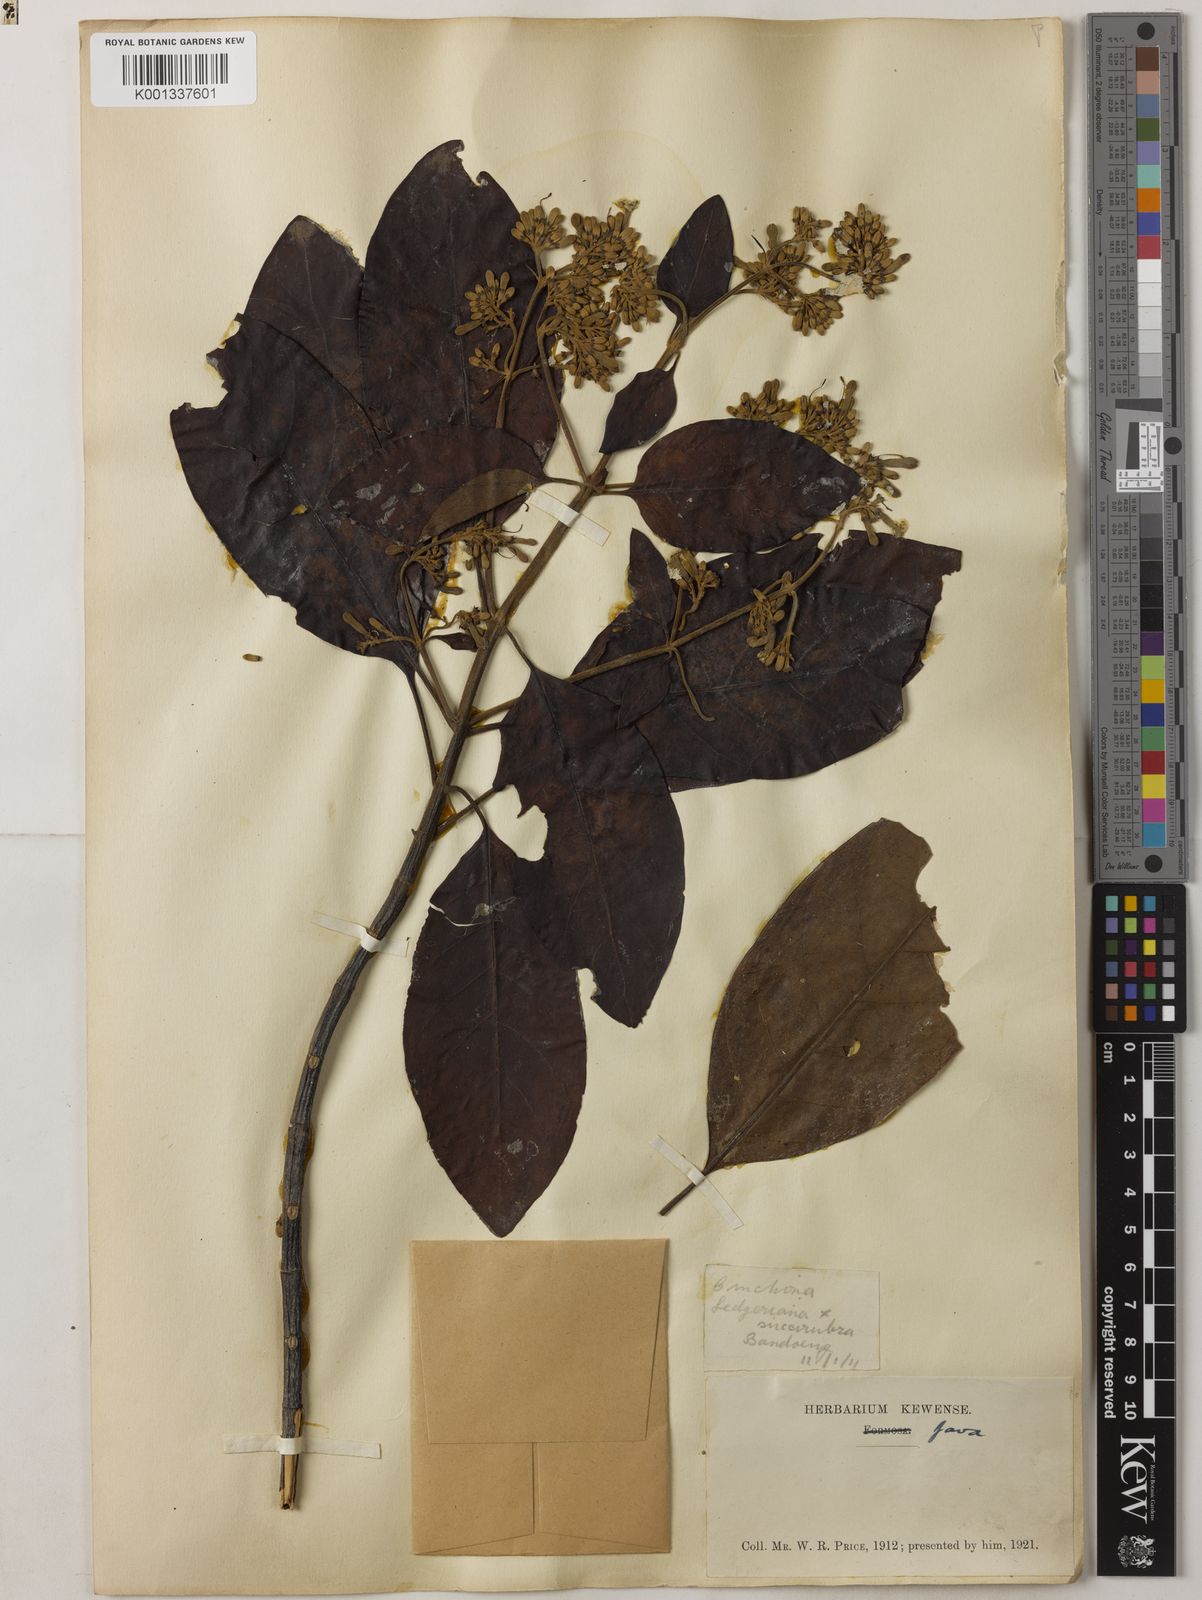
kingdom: Plantae
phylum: Tracheophyta
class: Magnoliopsida
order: Gentianales
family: Rubiaceae
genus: Cinchona
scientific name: Cinchona calisaya
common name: Ledgerbark
